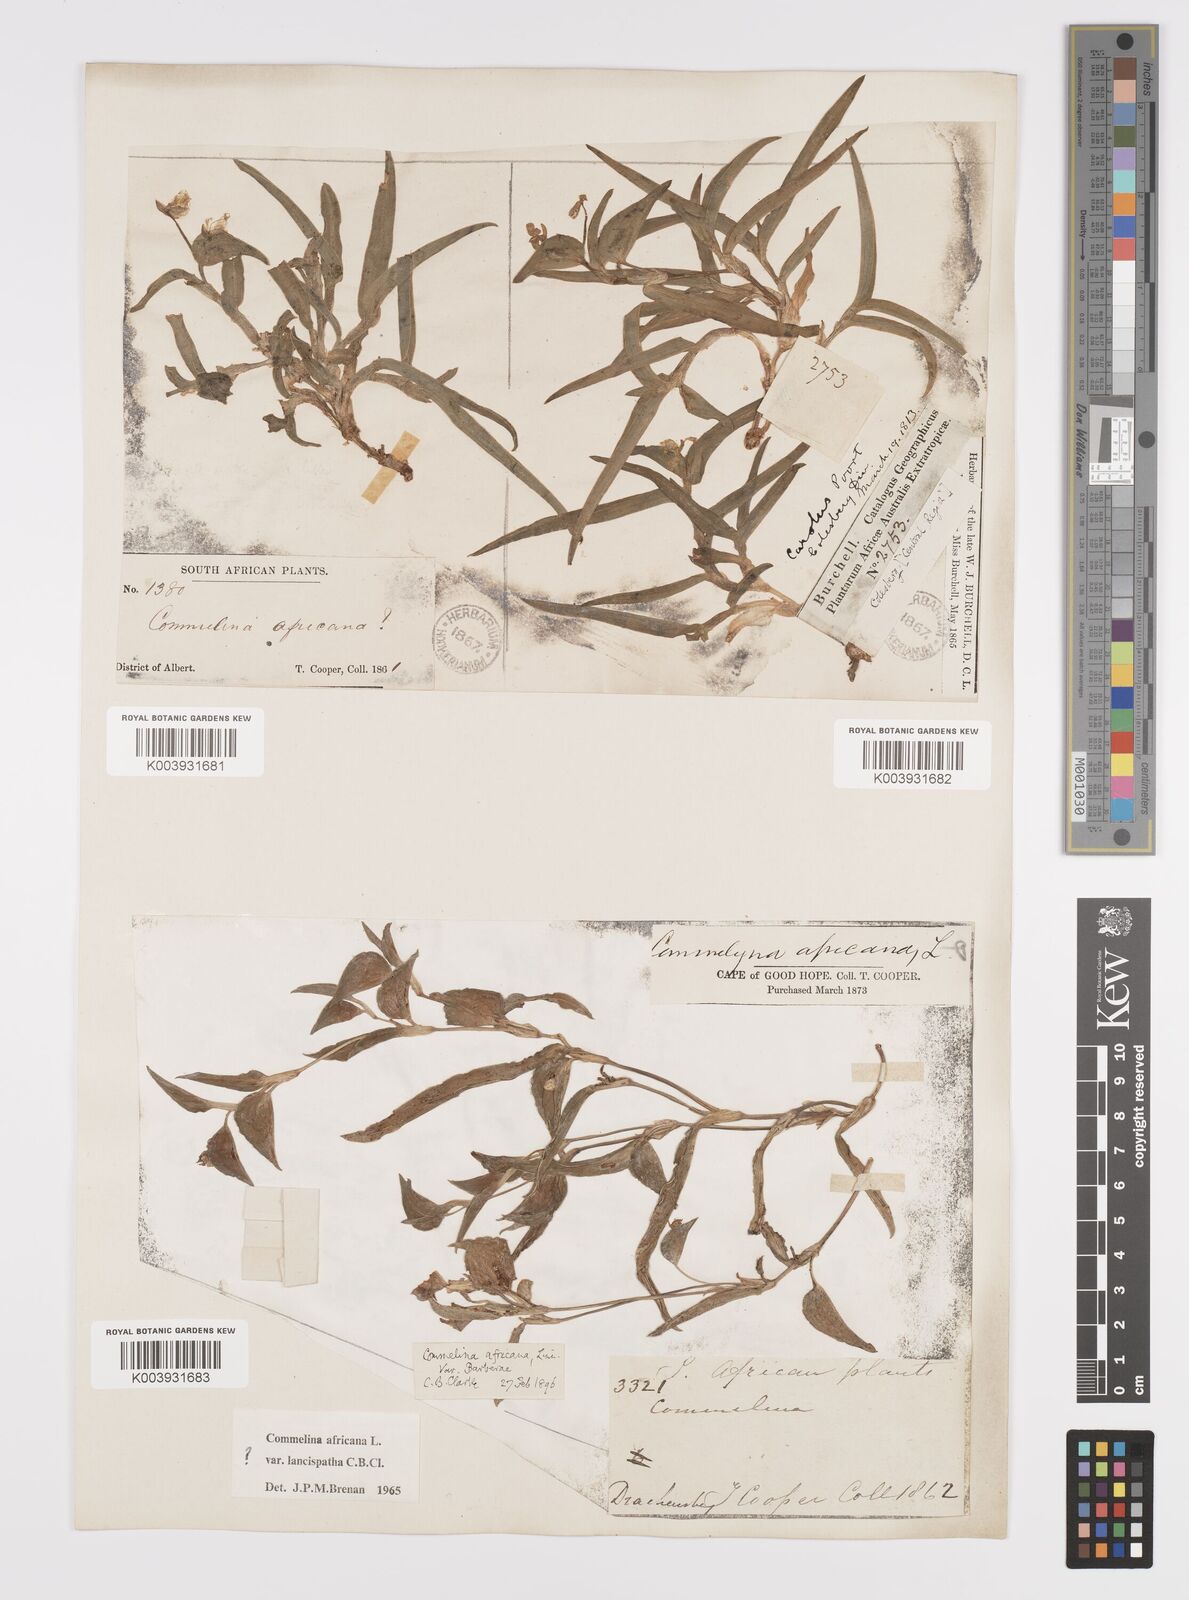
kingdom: Plantae
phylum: Tracheophyta
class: Liliopsida
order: Commelinales
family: Commelinaceae
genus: Commelina
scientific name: Commelina africana
